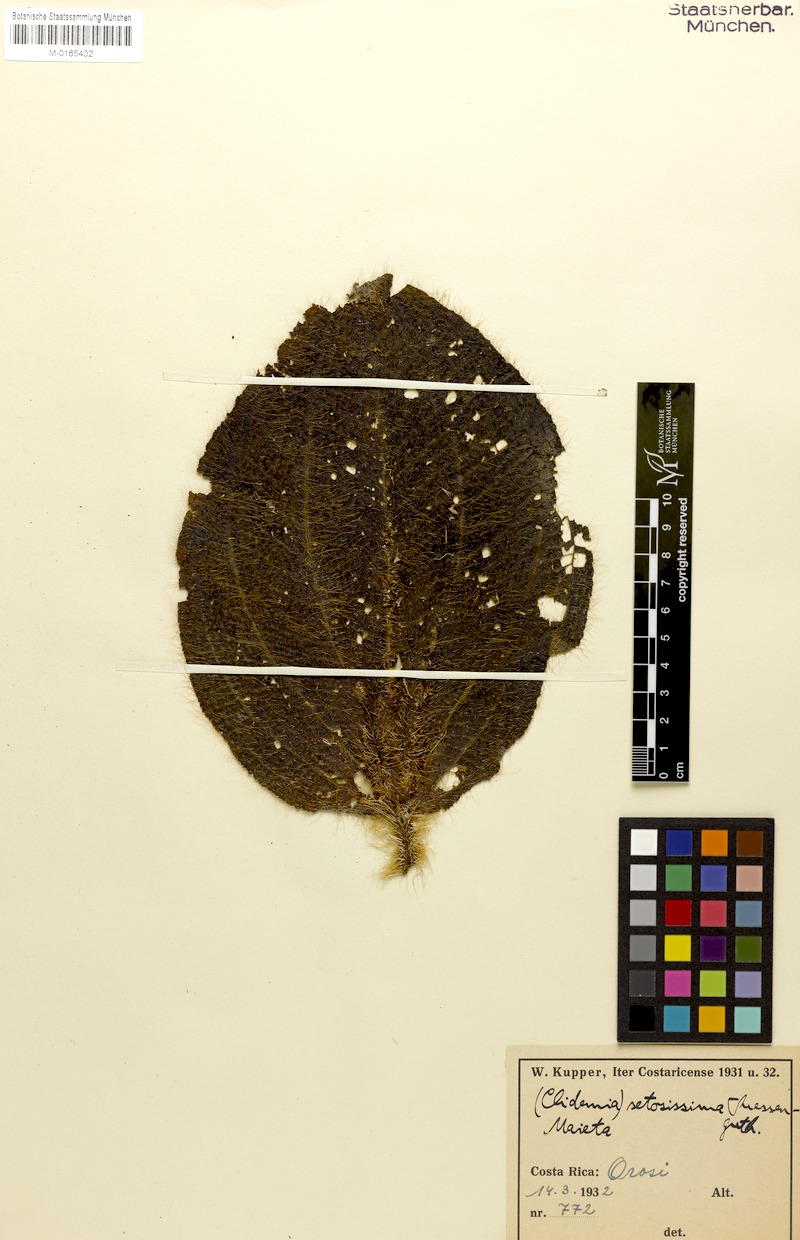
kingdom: Plantae
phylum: Tracheophyta
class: Magnoliopsida
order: Myrtales
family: Melastomataceae
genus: Miconia
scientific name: Miconia spectabilis
